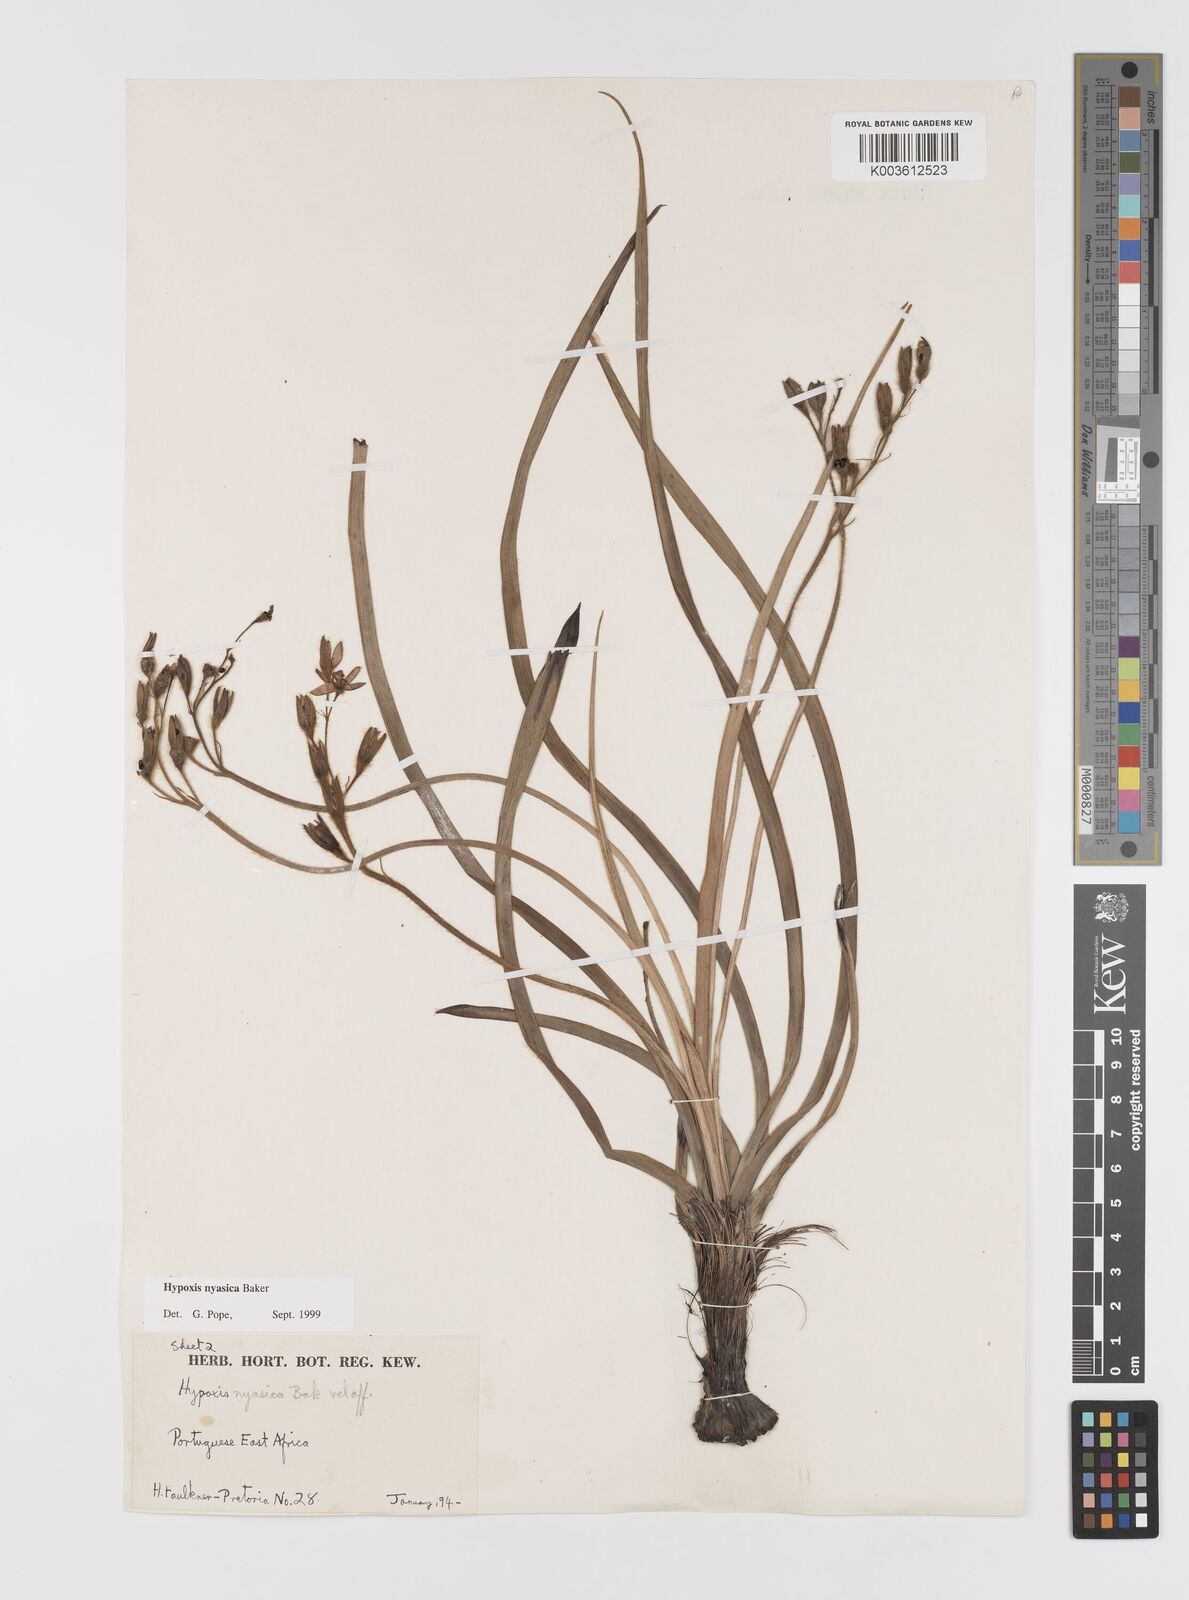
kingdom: Plantae
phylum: Tracheophyta
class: Liliopsida
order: Asparagales
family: Hypoxidaceae
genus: Hypoxis
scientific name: Hypoxis nyasica
